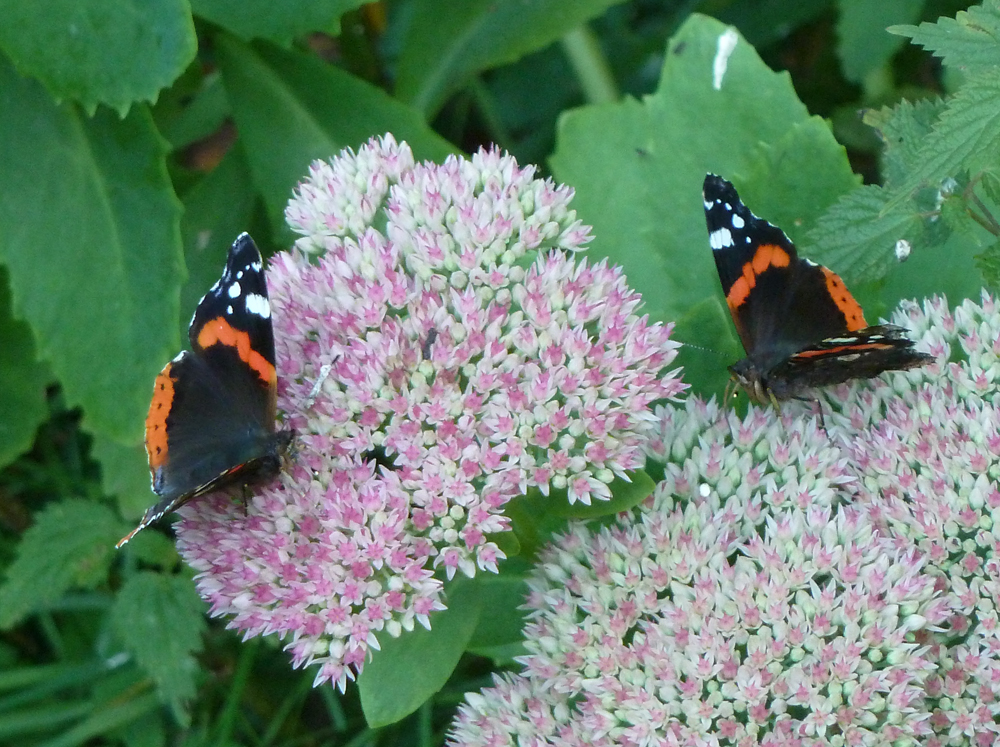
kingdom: Animalia
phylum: Arthropoda
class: Insecta
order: Lepidoptera
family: Nymphalidae
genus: Vanessa
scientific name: Vanessa atalanta
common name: Red admiral
